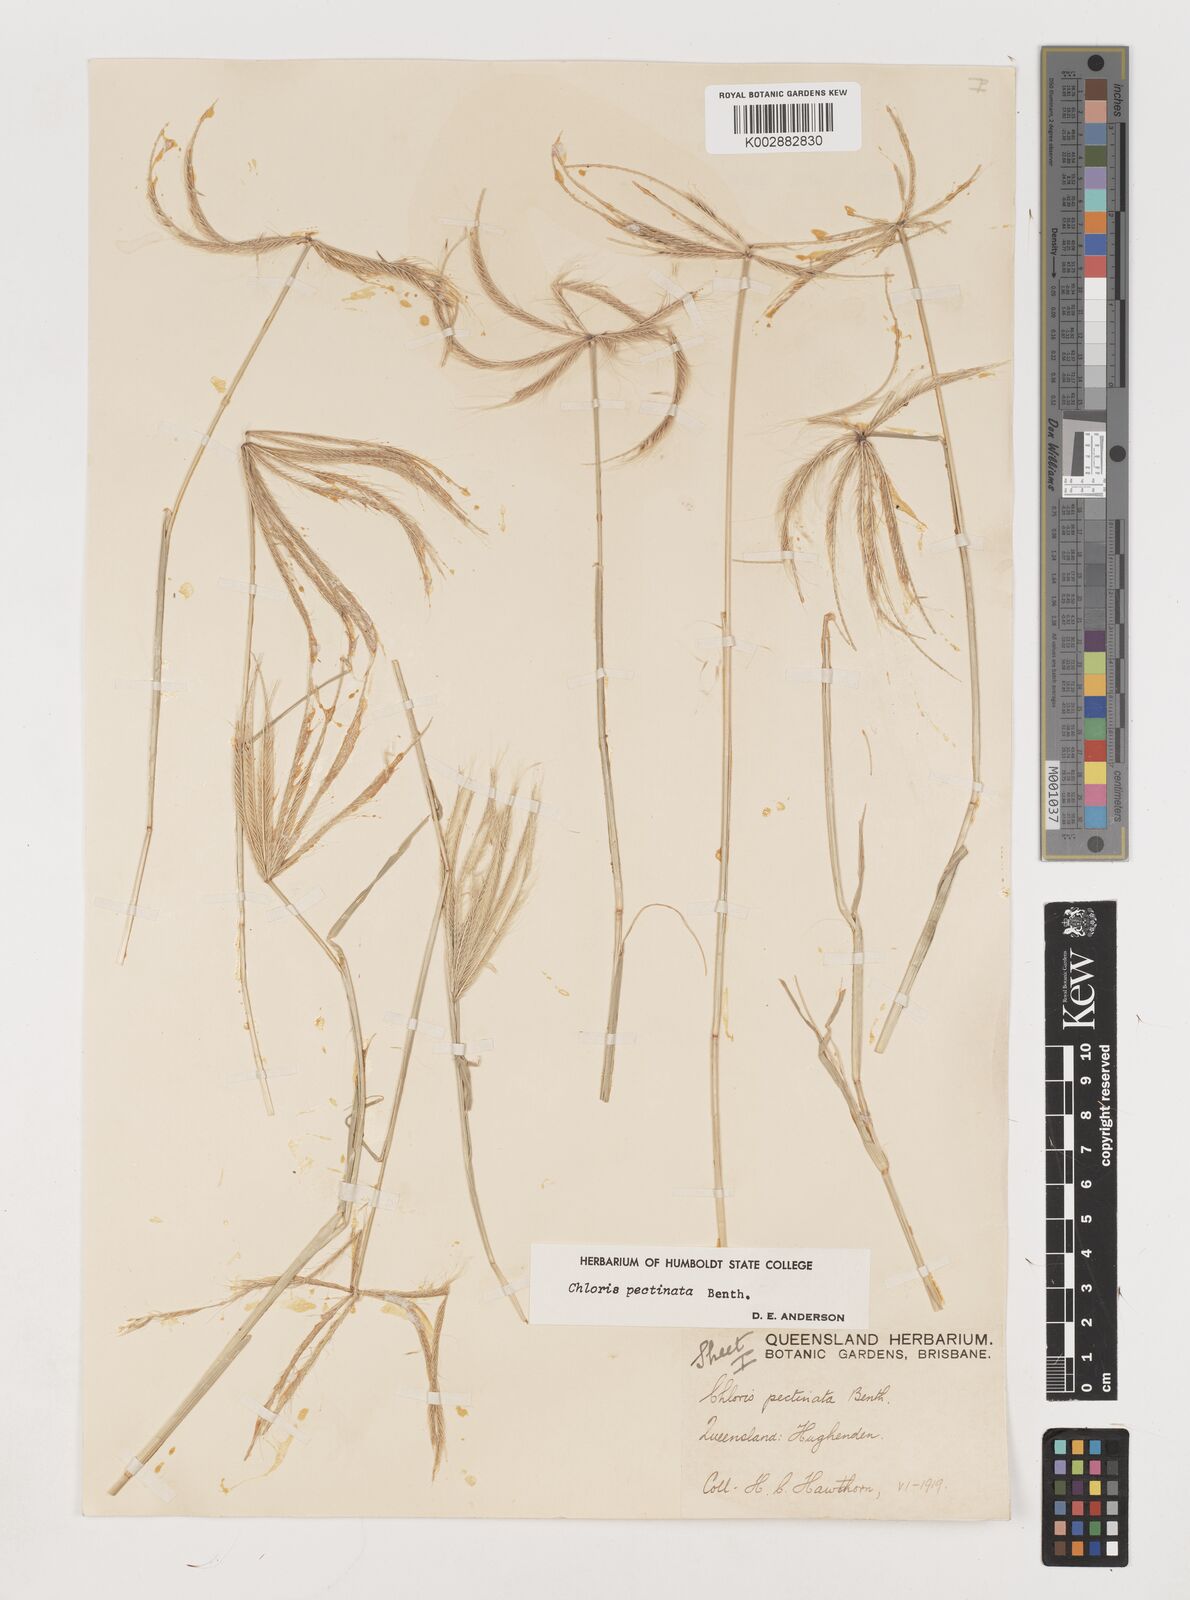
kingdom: Plantae
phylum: Tracheophyta
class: Liliopsida
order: Poales
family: Poaceae
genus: Chloris
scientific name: Chloris pectinata
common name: Comb windmill grass
